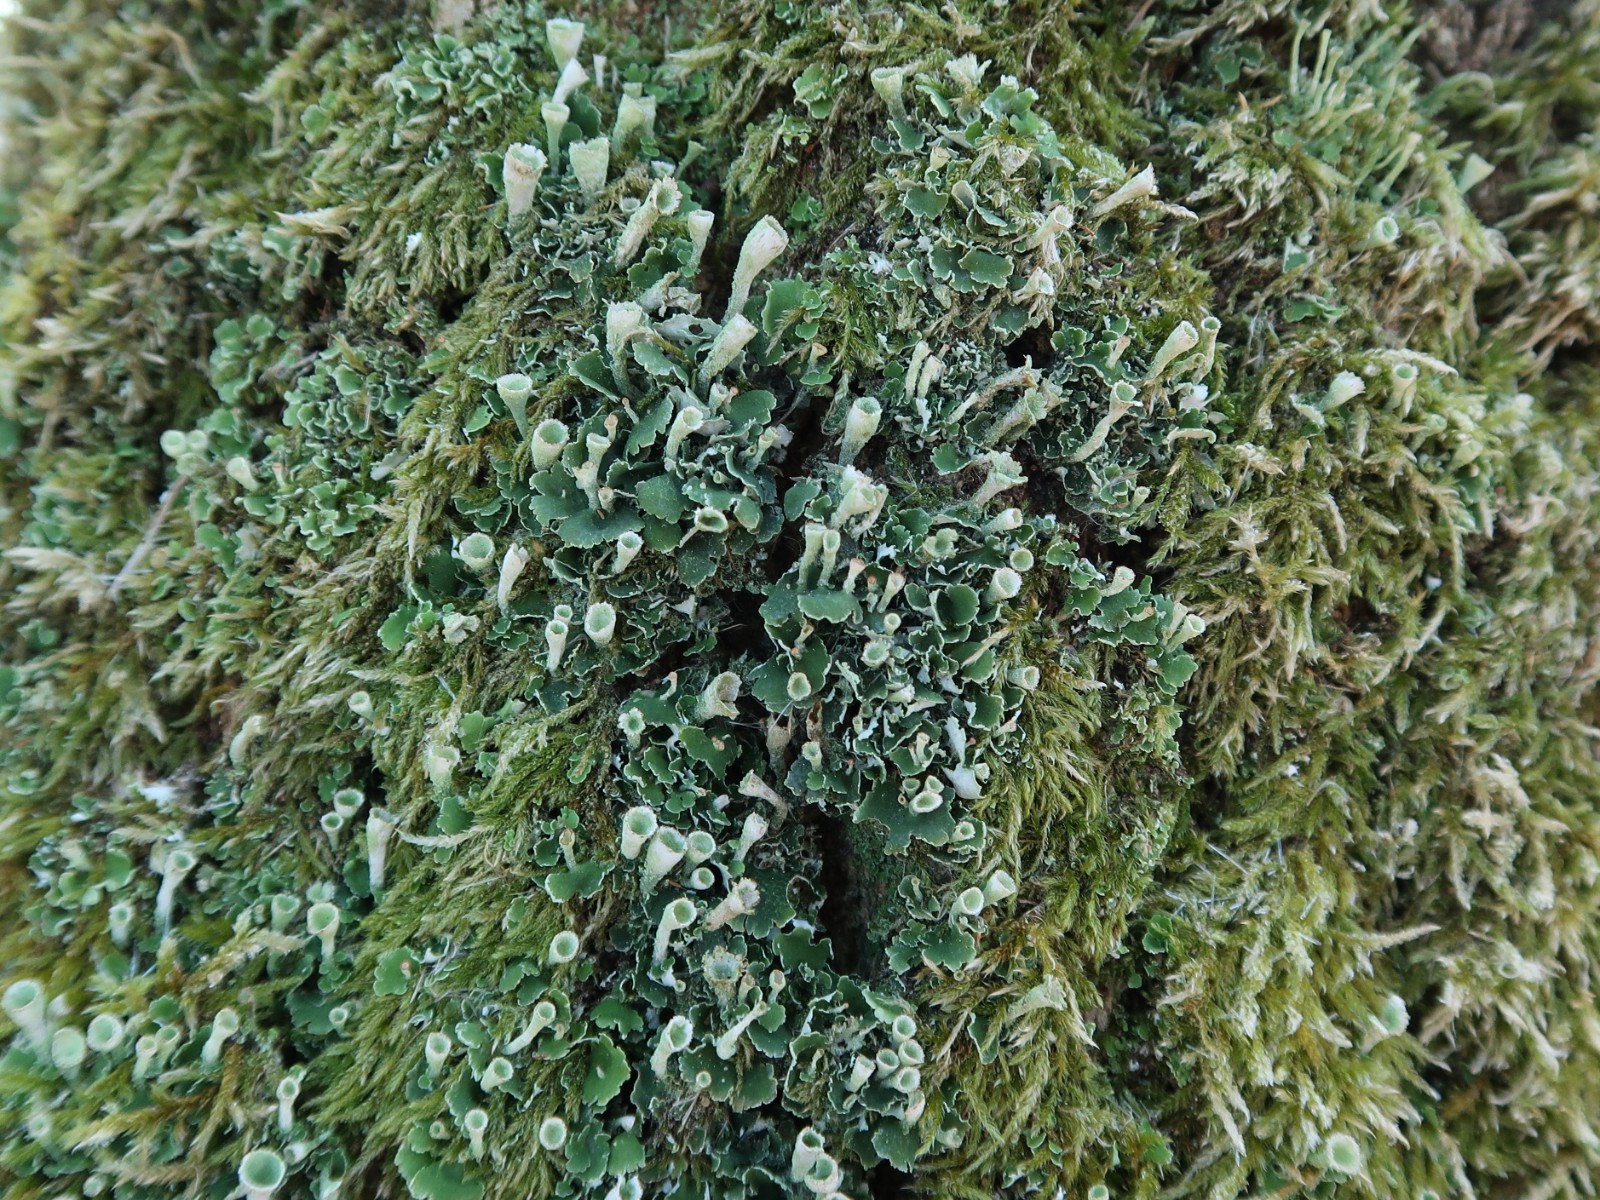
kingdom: Fungi
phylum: Ascomycota
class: Lecanoromycetes
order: Lecanorales
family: Cladoniaceae
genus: Cladonia
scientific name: Cladonia humilis
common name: lav bægerlav
